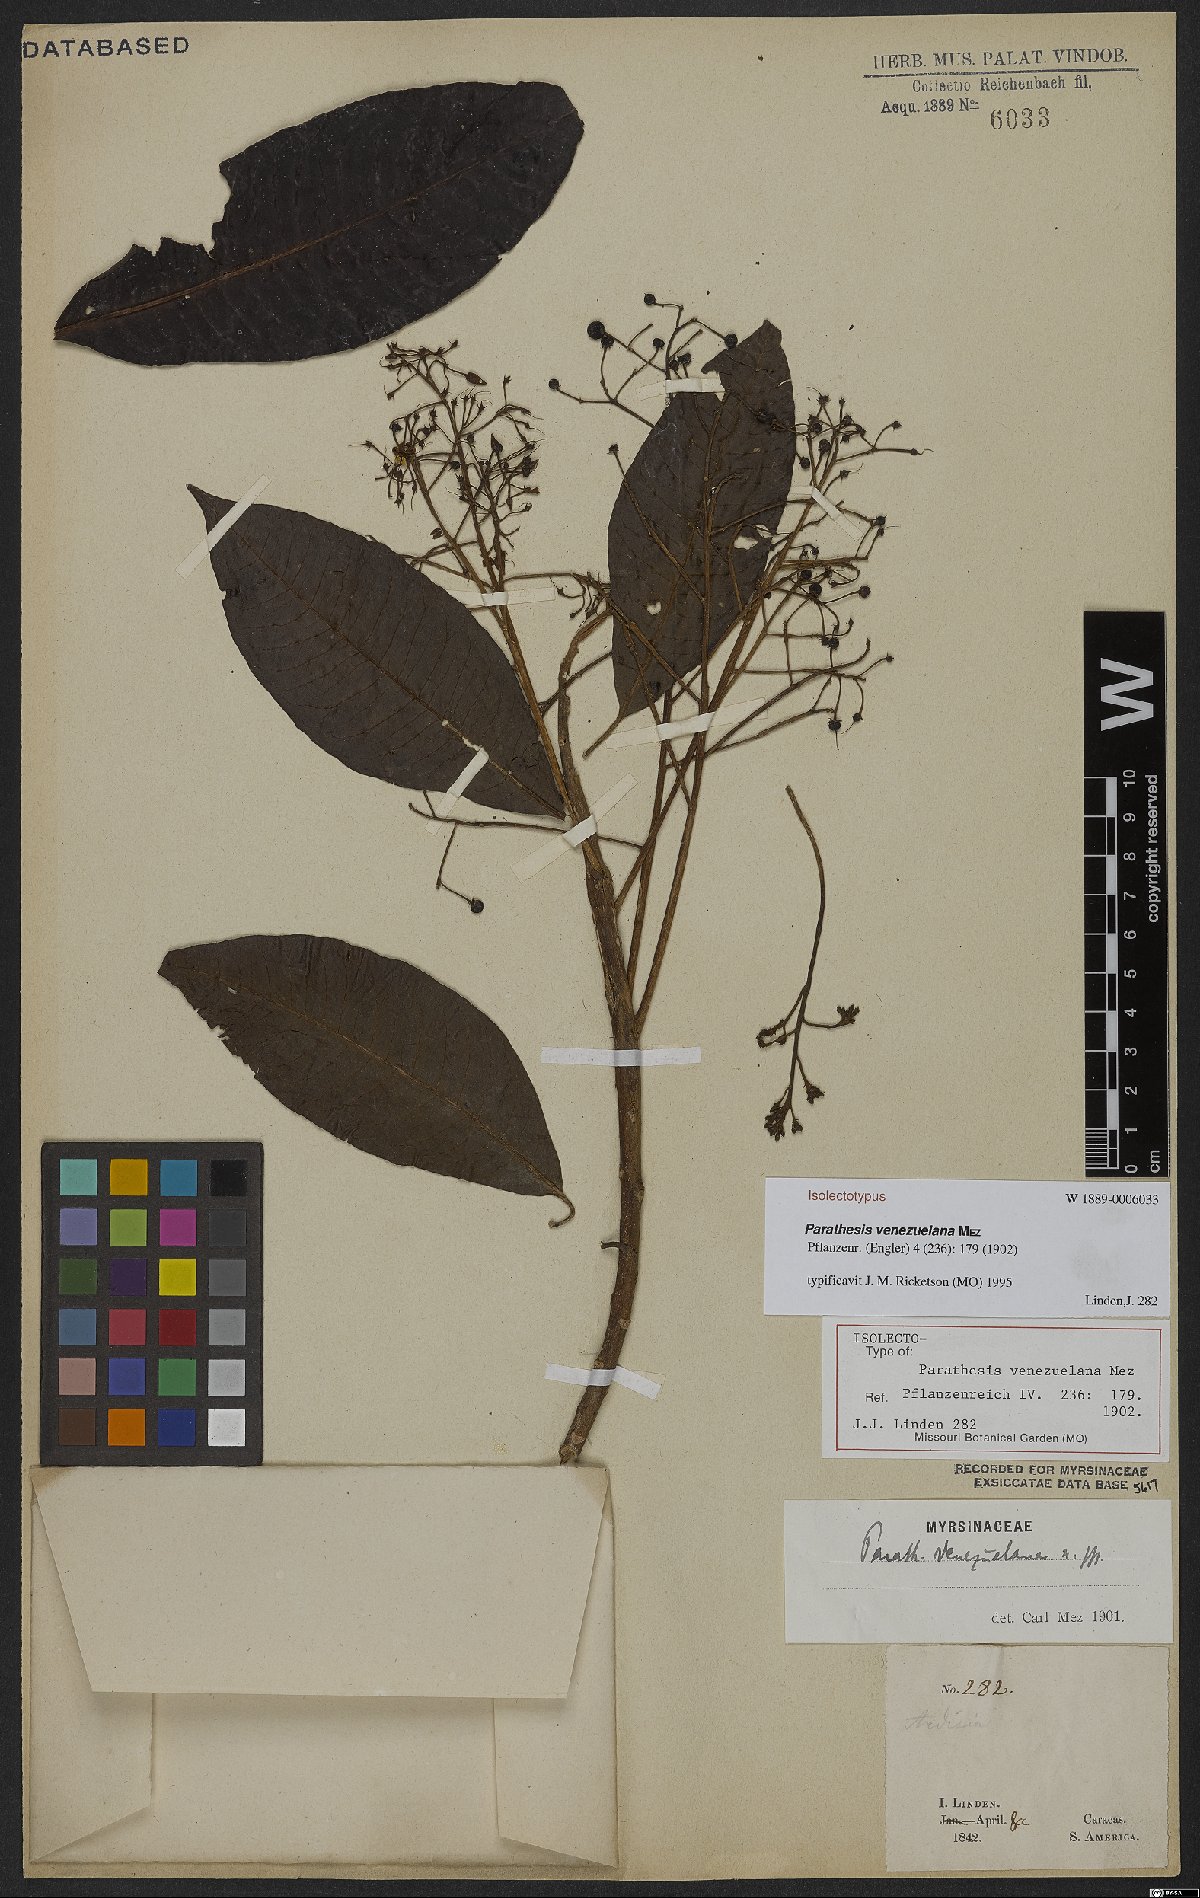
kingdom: Plantae
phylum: Tracheophyta
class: Magnoliopsida
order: Ericales
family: Primulaceae
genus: Parathesis
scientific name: Parathesis venezuelana
